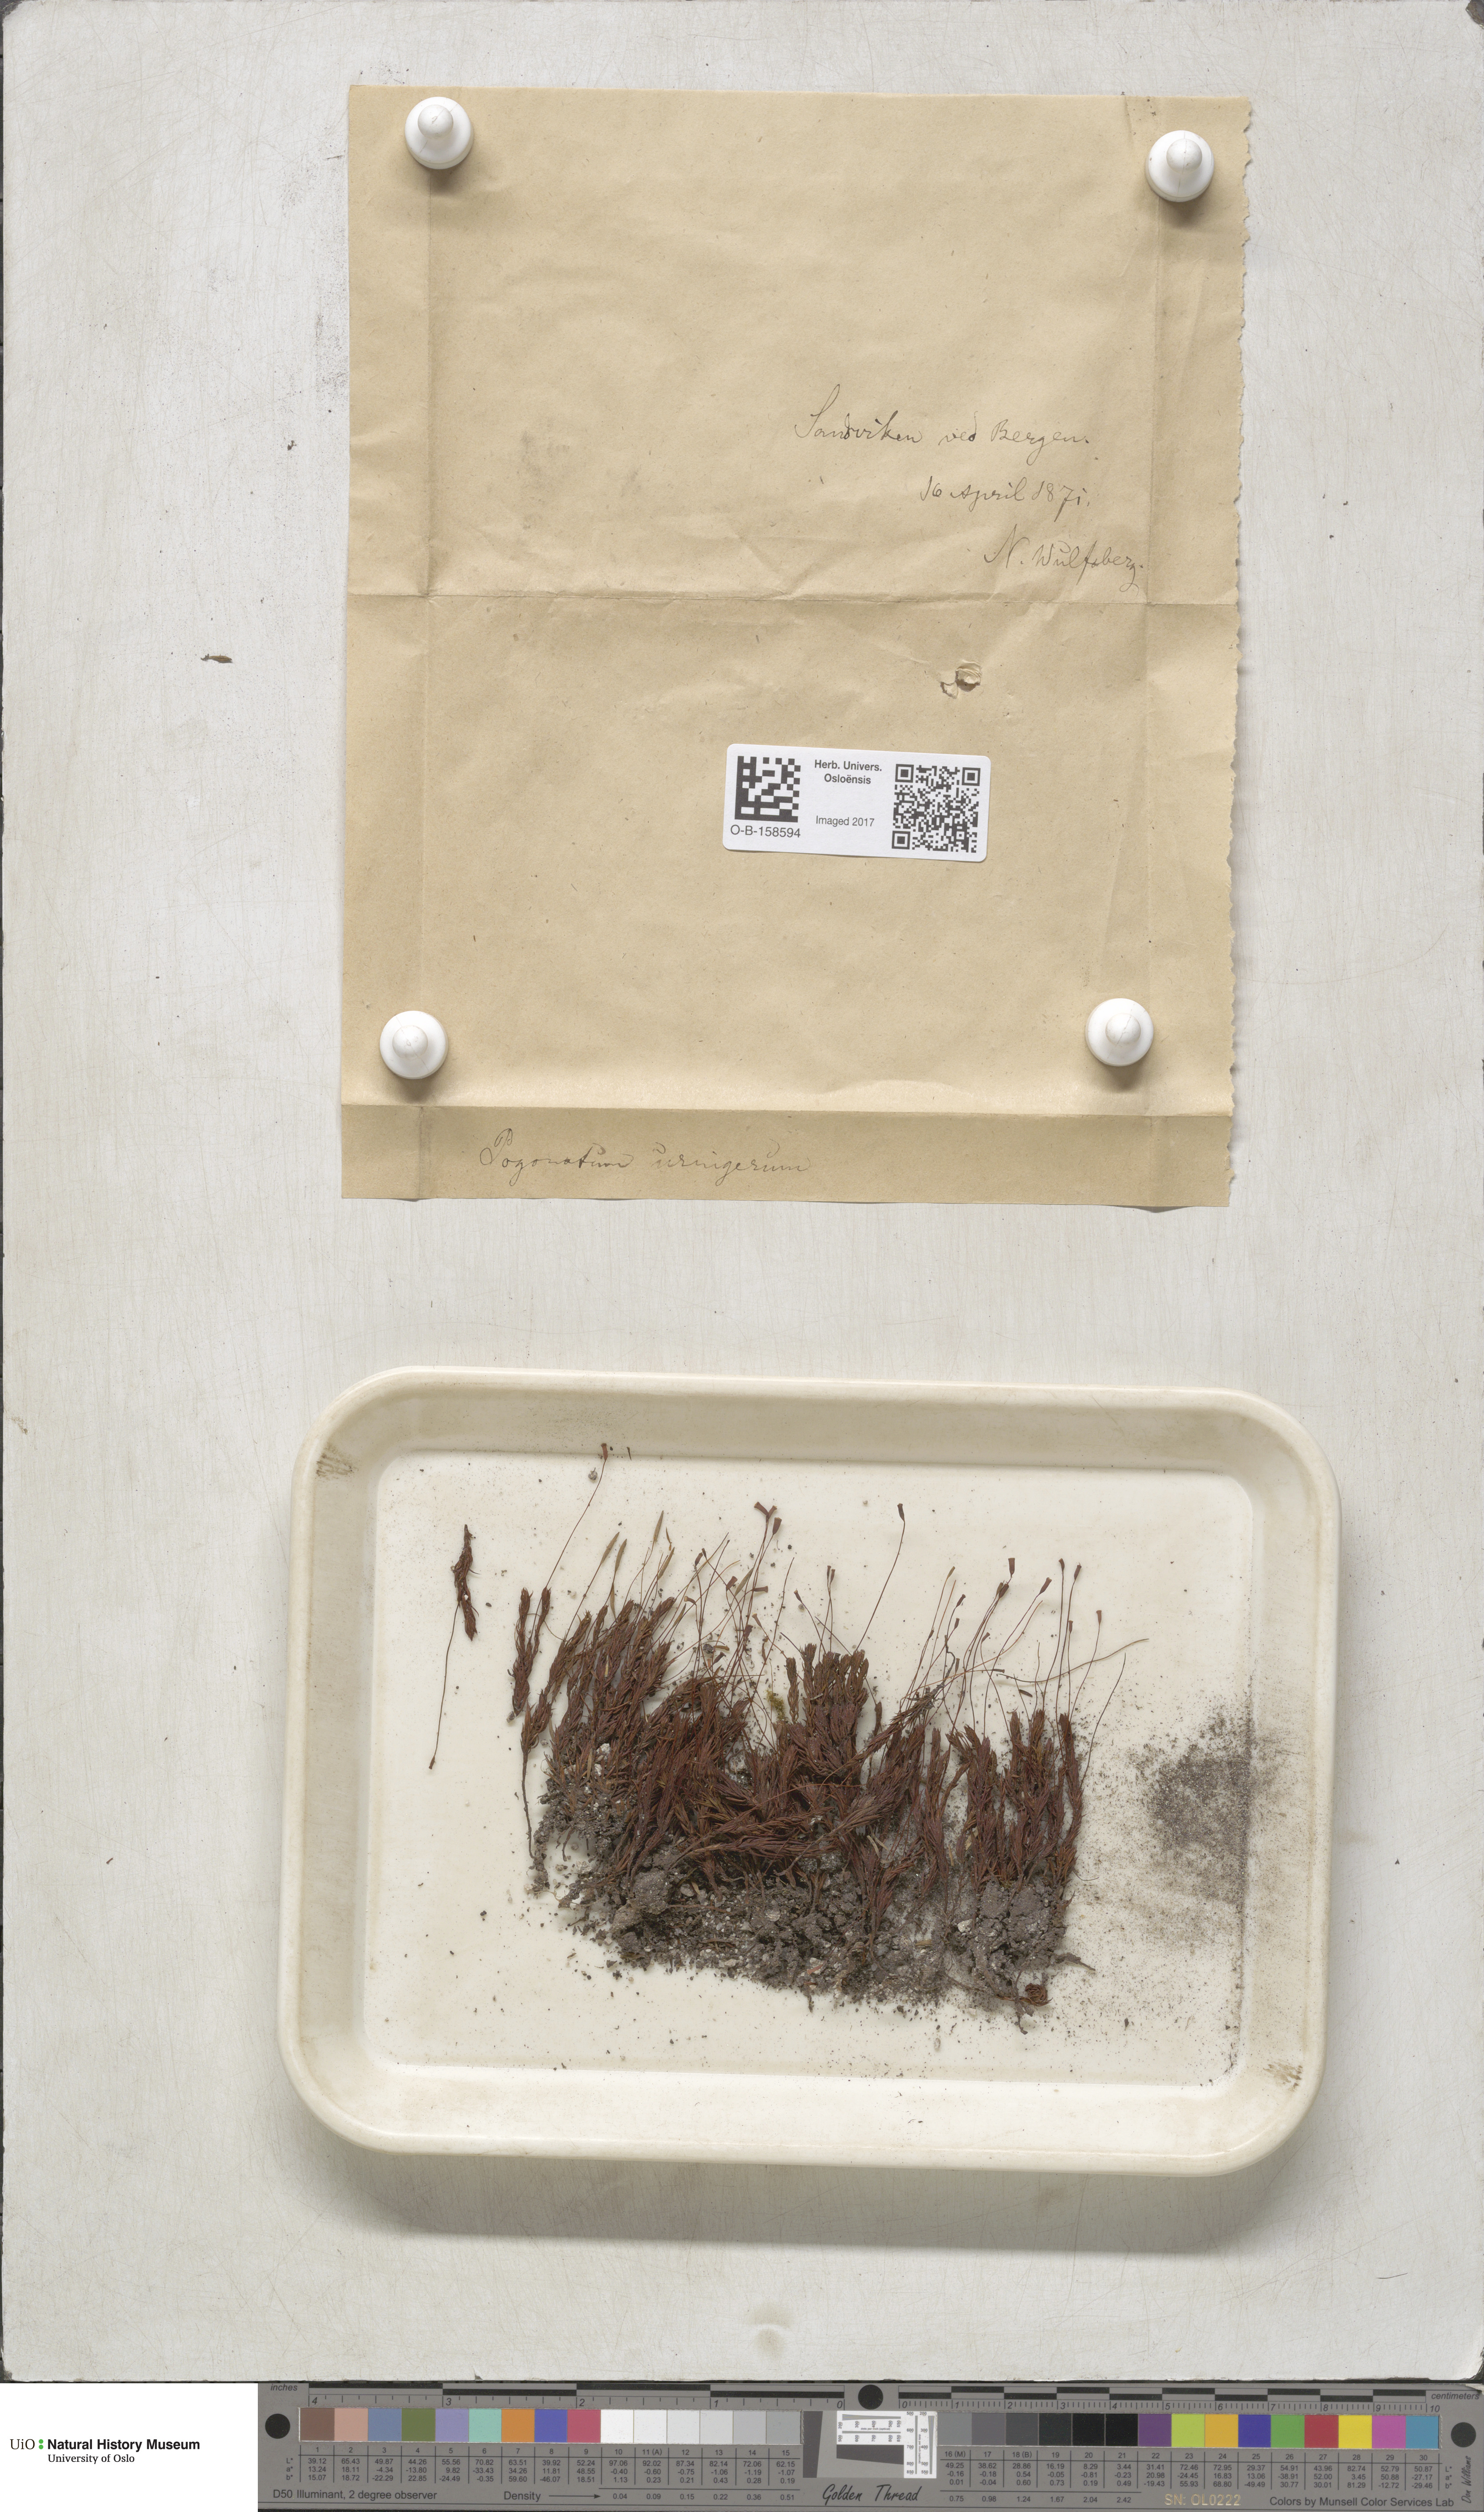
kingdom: Plantae
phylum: Bryophyta
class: Polytrichopsida
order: Polytrichales
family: Polytrichaceae
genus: Pogonatum
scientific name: Pogonatum urnigerum
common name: Urn hair moss
